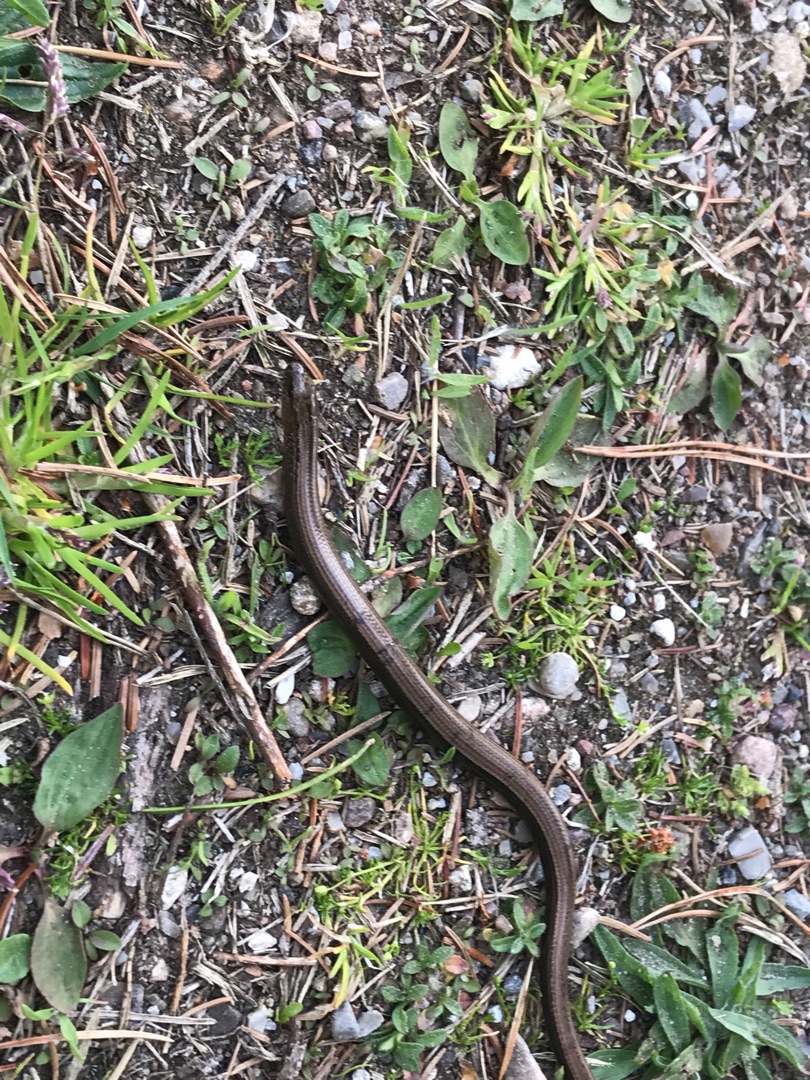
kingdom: Animalia
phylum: Chordata
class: Squamata
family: Anguidae
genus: Anguis
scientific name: Anguis fragilis
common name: Stålorm
